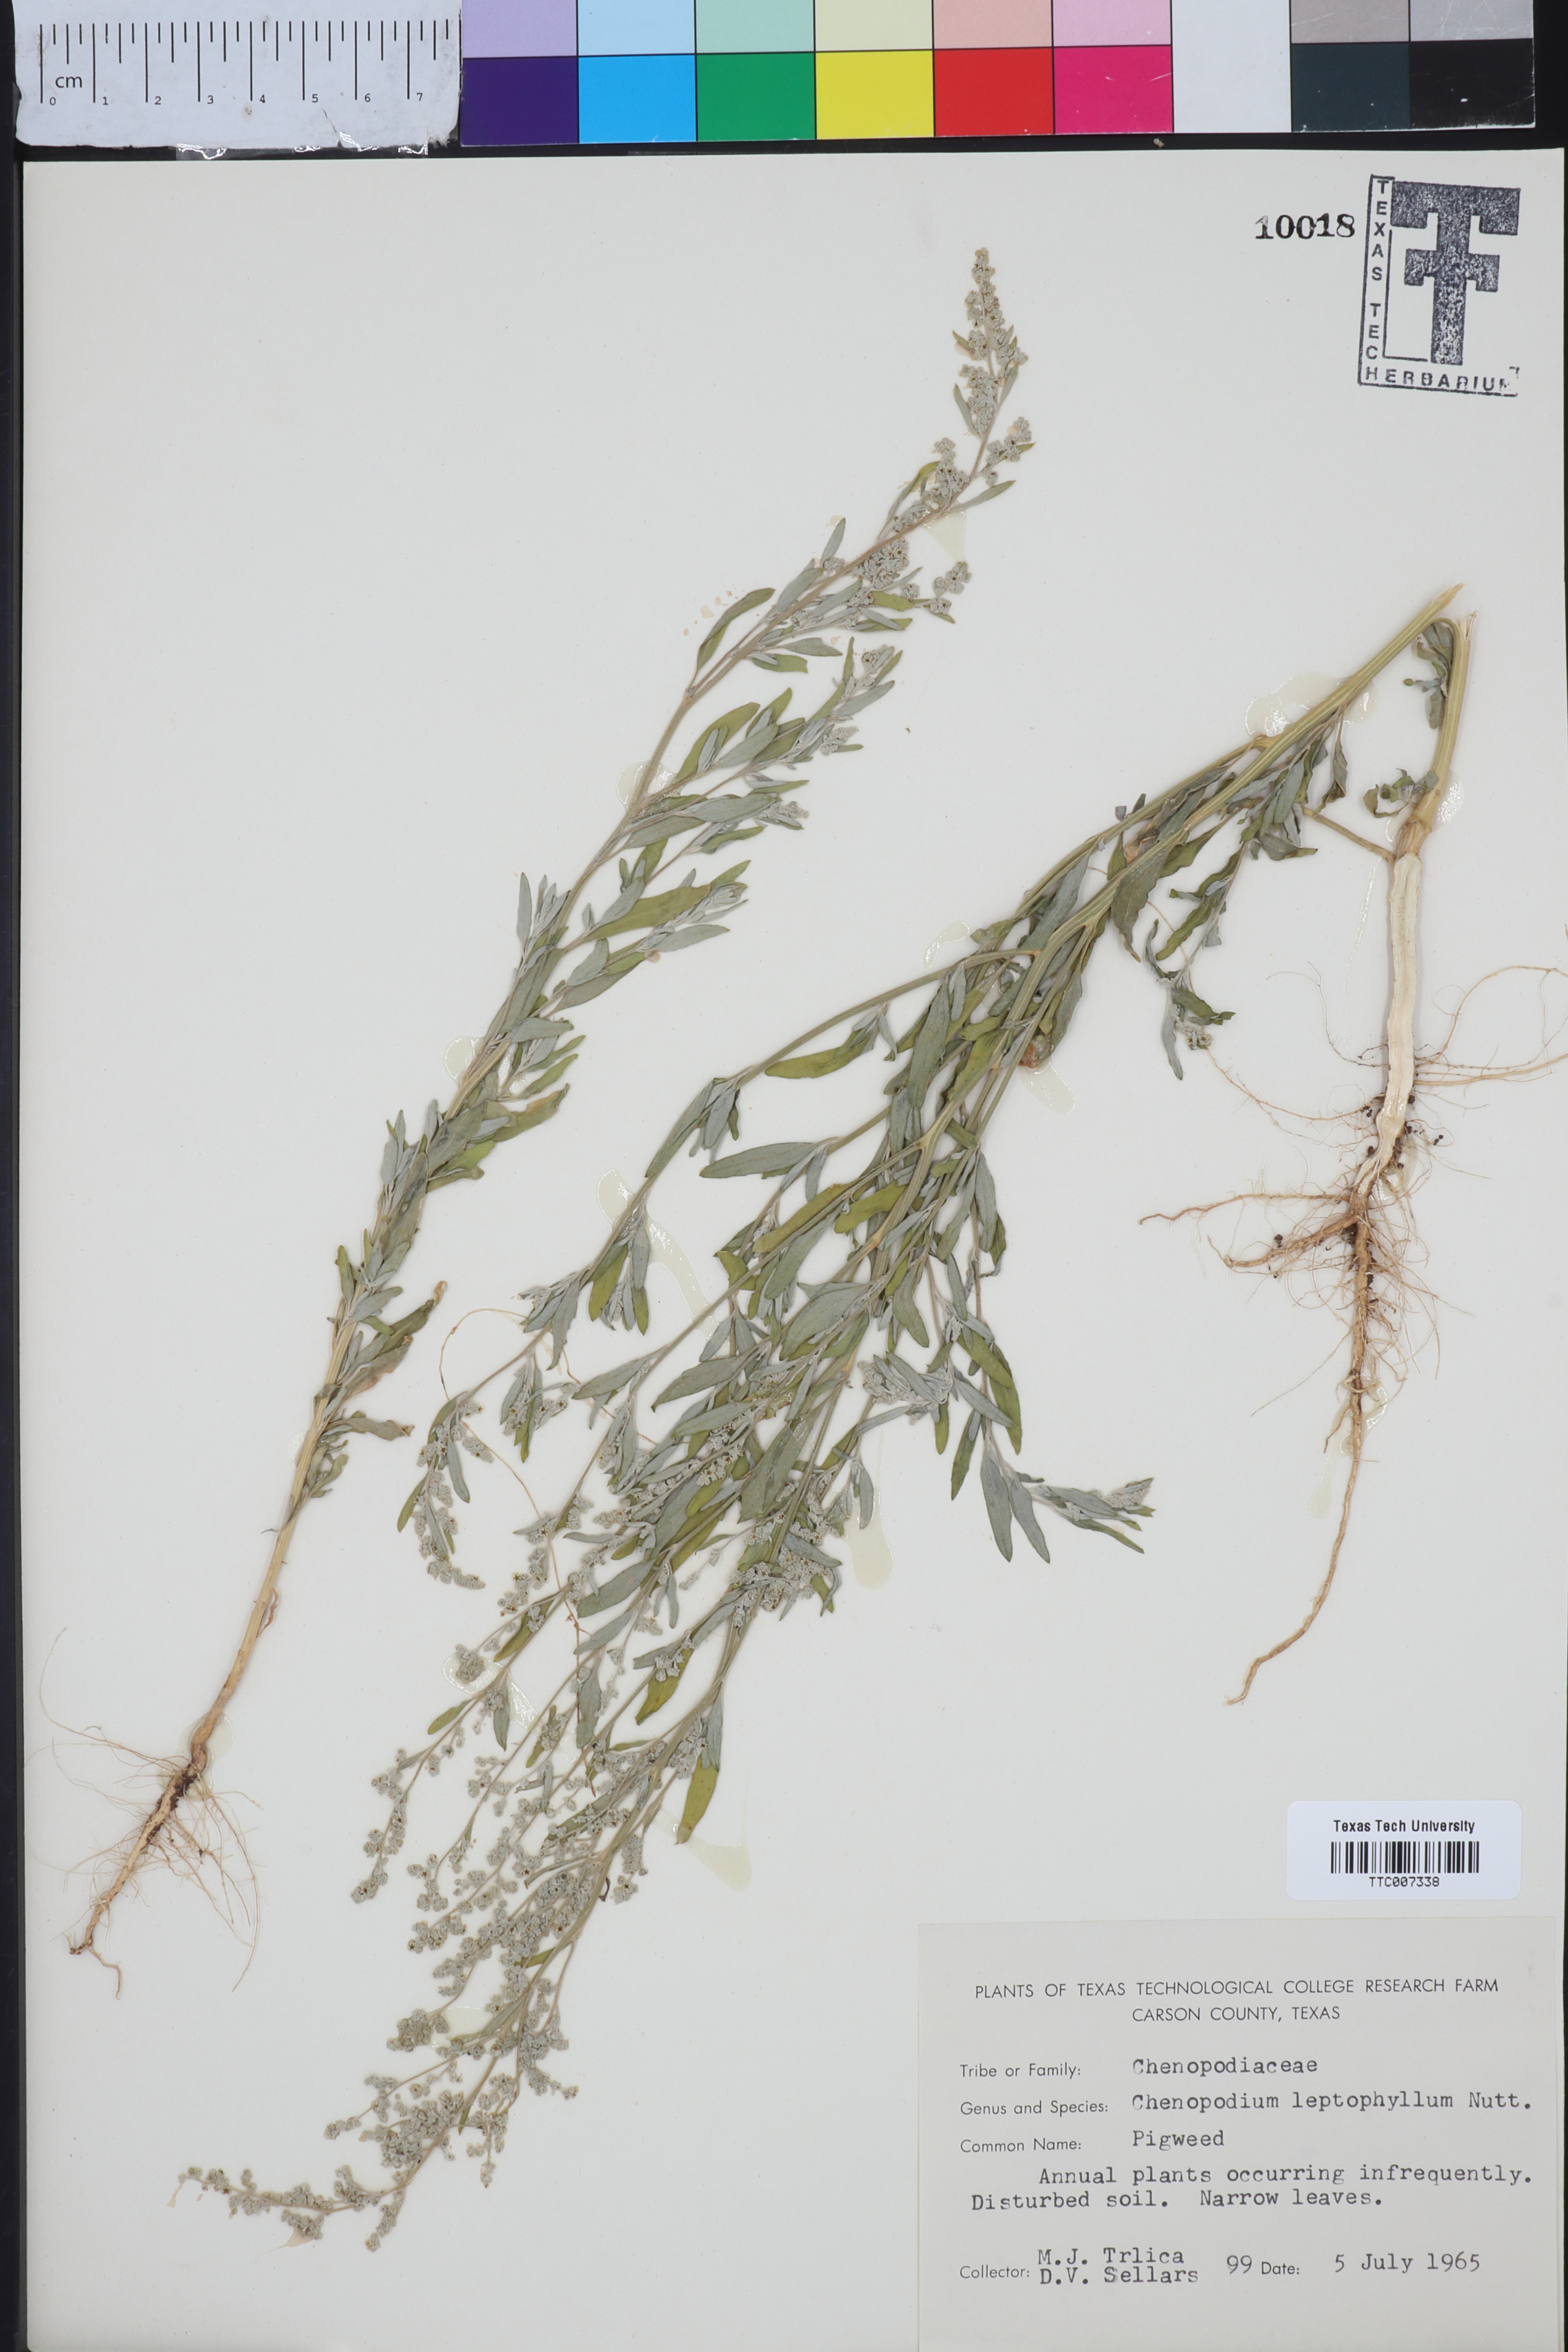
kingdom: Plantae
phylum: Tracheophyta
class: Magnoliopsida
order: Caryophyllales
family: Amaranthaceae
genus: Chenopodium
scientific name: Chenopodium leptophyllum
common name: Narrow-leaf goosefoot
